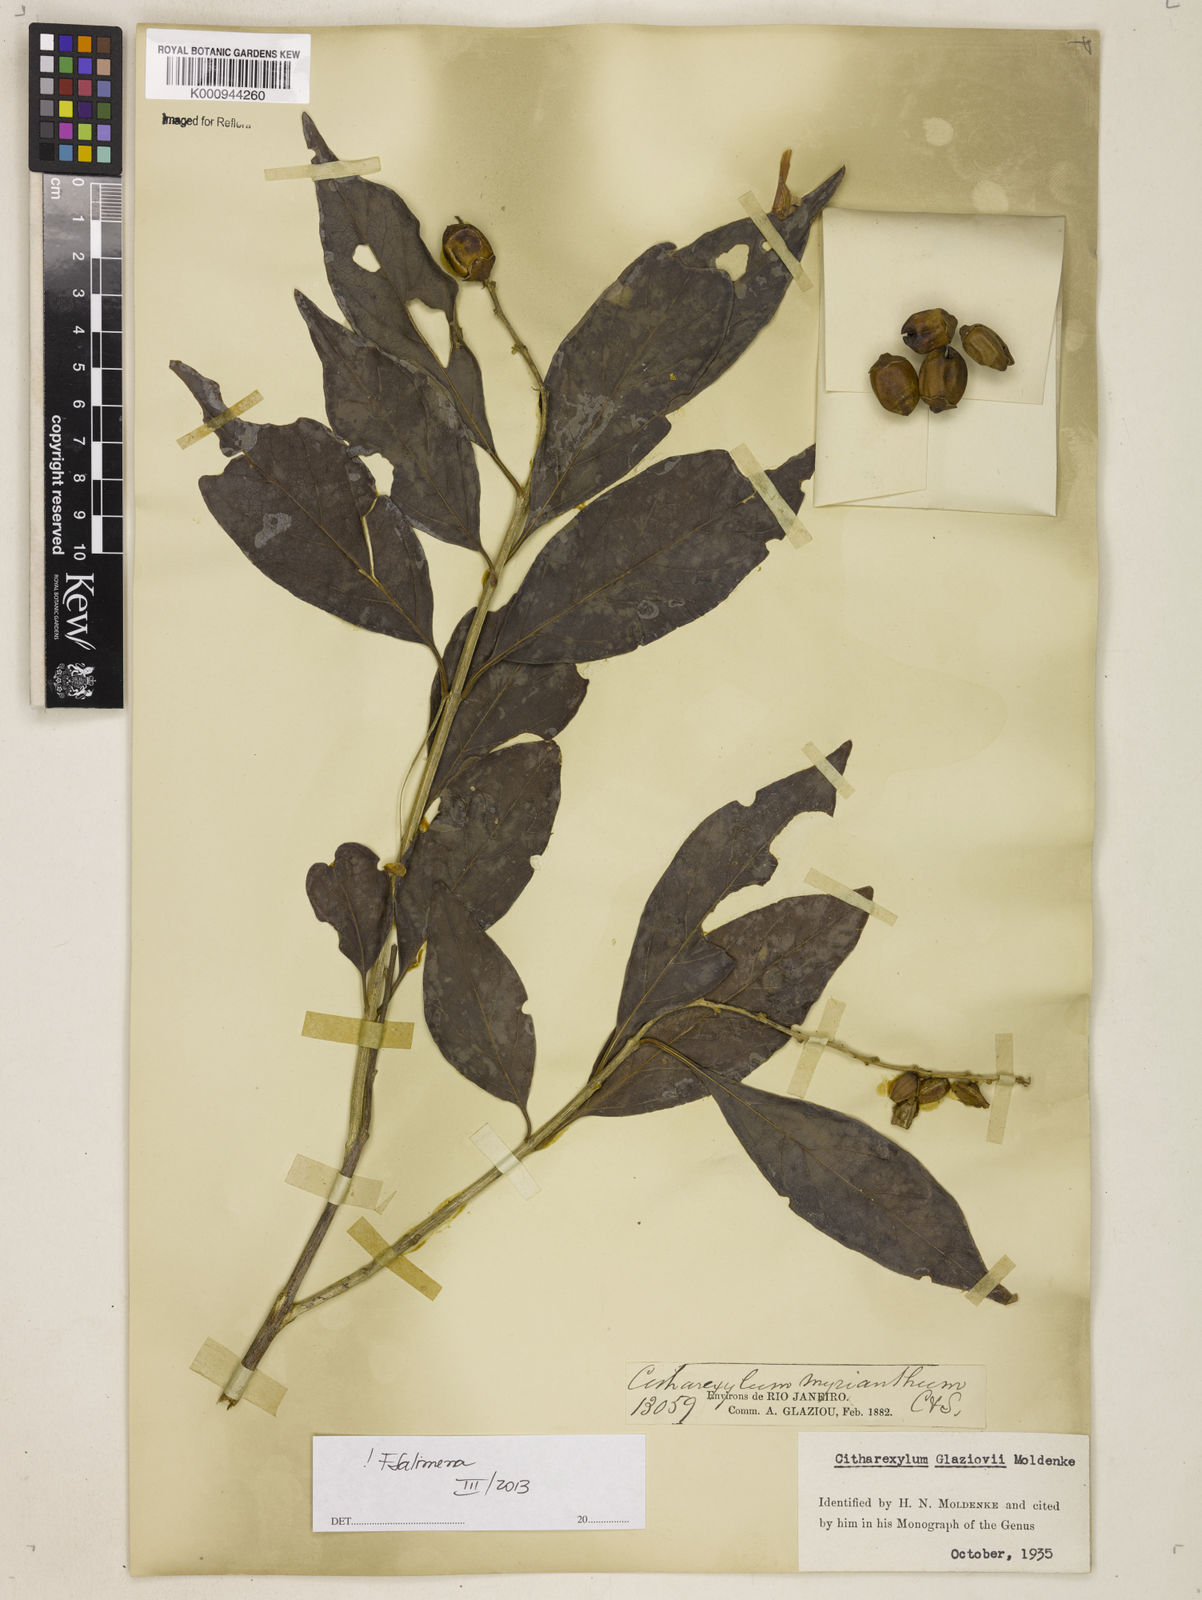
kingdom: Plantae
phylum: Tracheophyta
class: Magnoliopsida
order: Lamiales
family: Verbenaceae
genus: Citharexylum
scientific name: Citharexylum myrianthum
